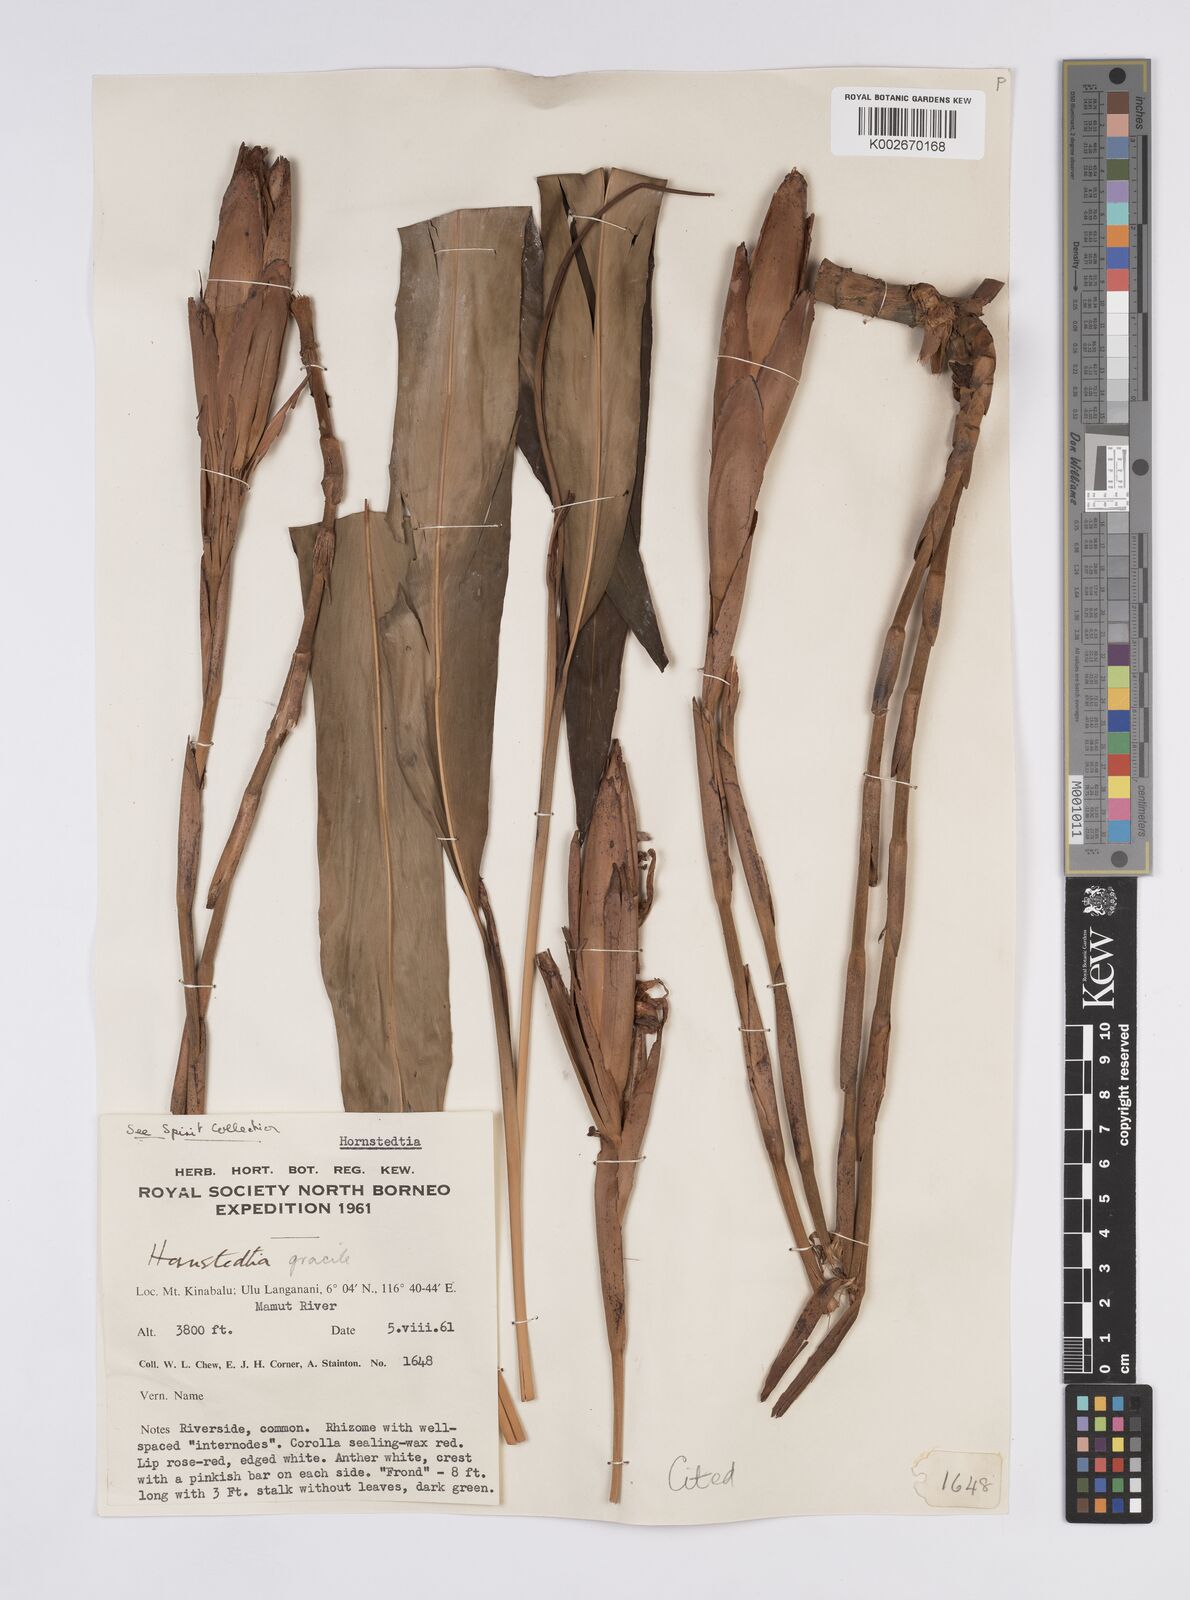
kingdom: Plantae
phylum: Tracheophyta
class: Liliopsida
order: Zingiberales
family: Zingiberaceae
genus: Hornstedtia
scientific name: Hornstedtia gracilis
